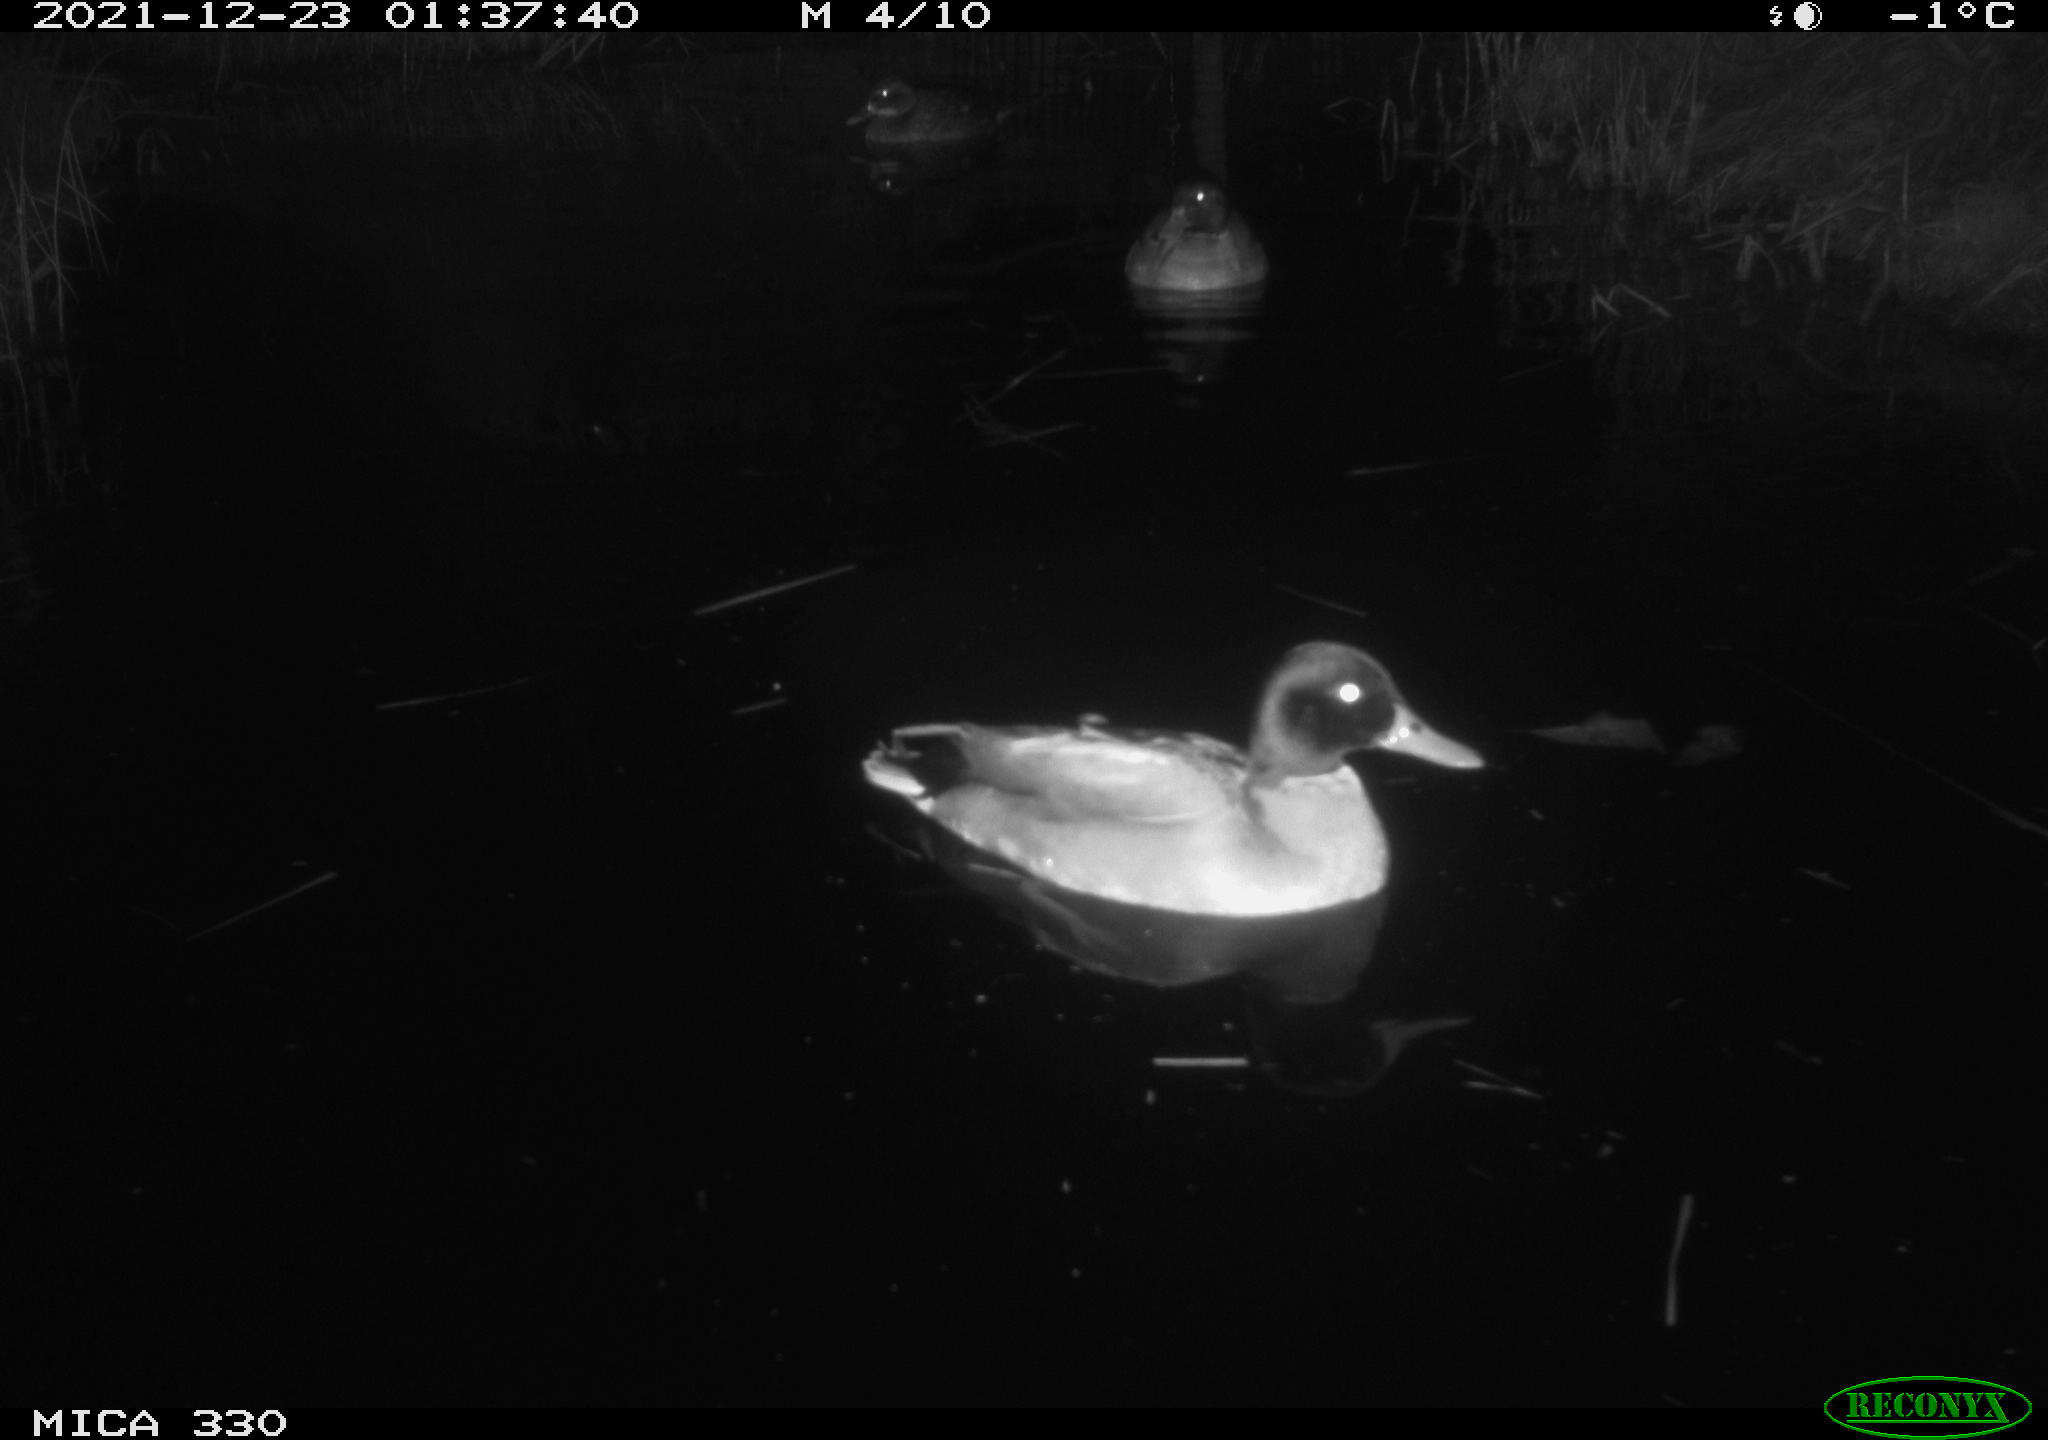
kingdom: Animalia
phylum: Chordata
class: Aves
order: Anseriformes
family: Anatidae
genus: Anas
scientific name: Anas platyrhynchos
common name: Mallard
